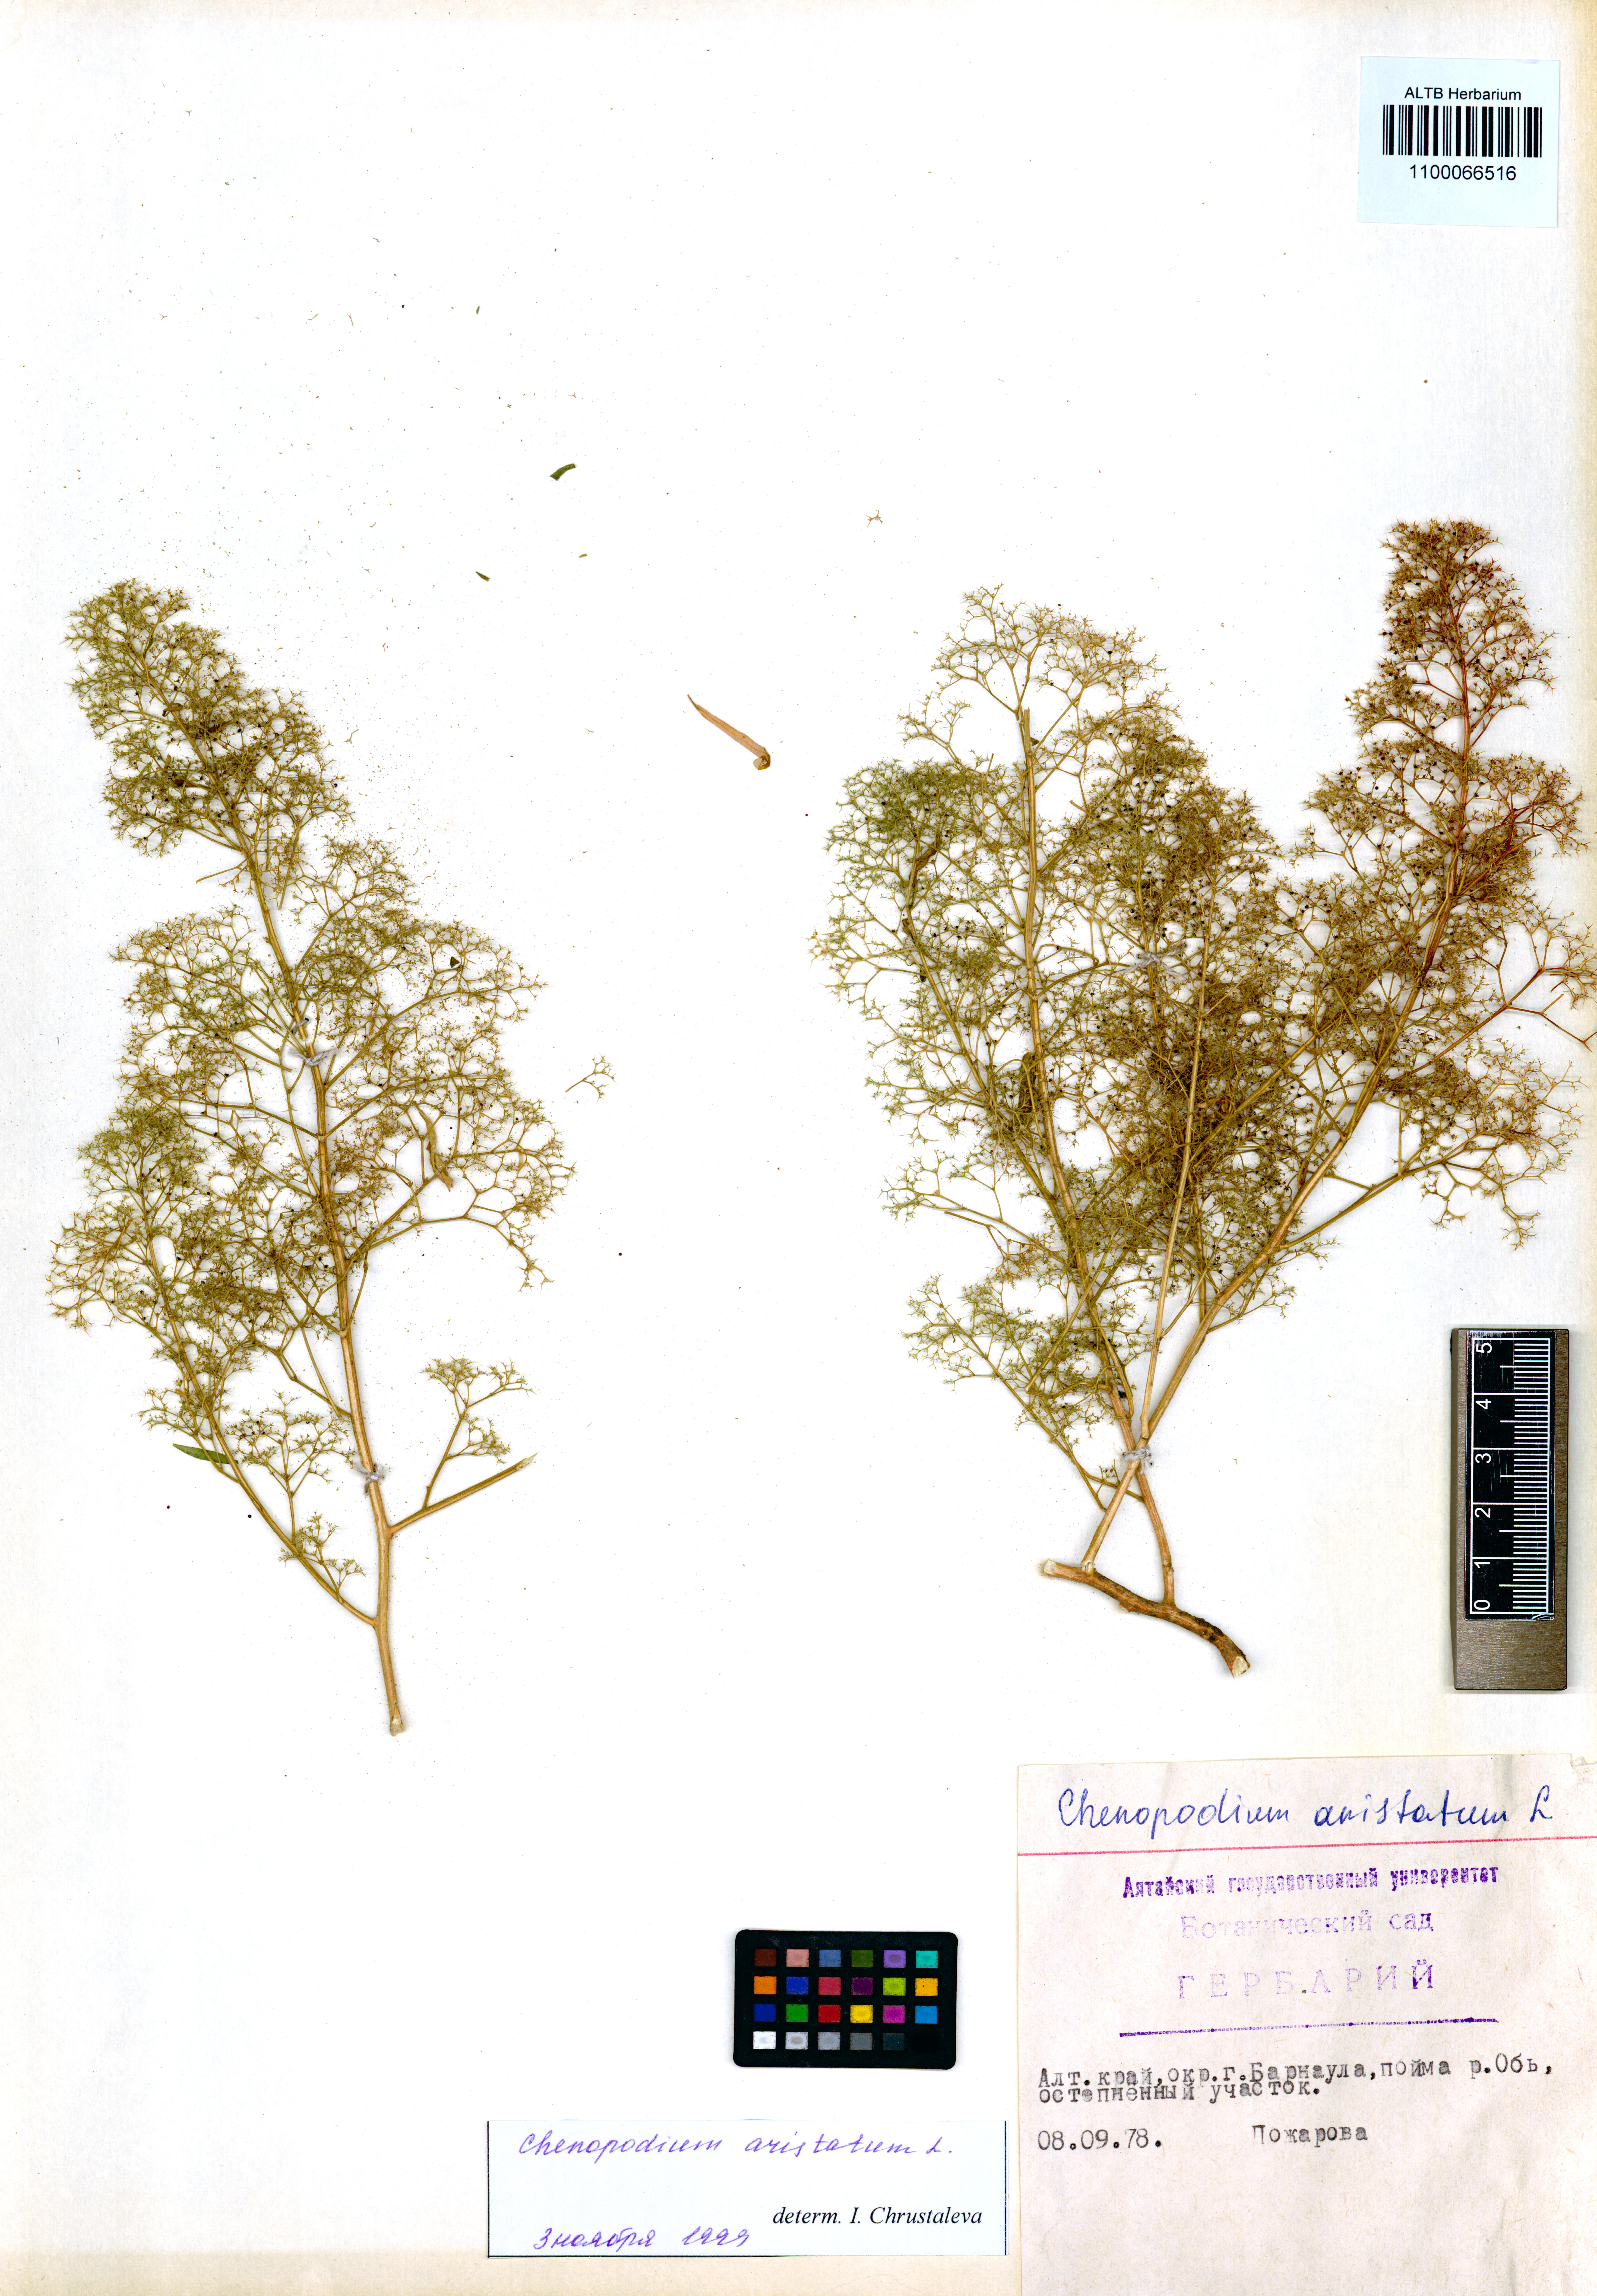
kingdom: Plantae
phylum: Tracheophyta
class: Magnoliopsida
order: Caryophyllales
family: Amaranthaceae
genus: Teloxys
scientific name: Teloxys aristata
